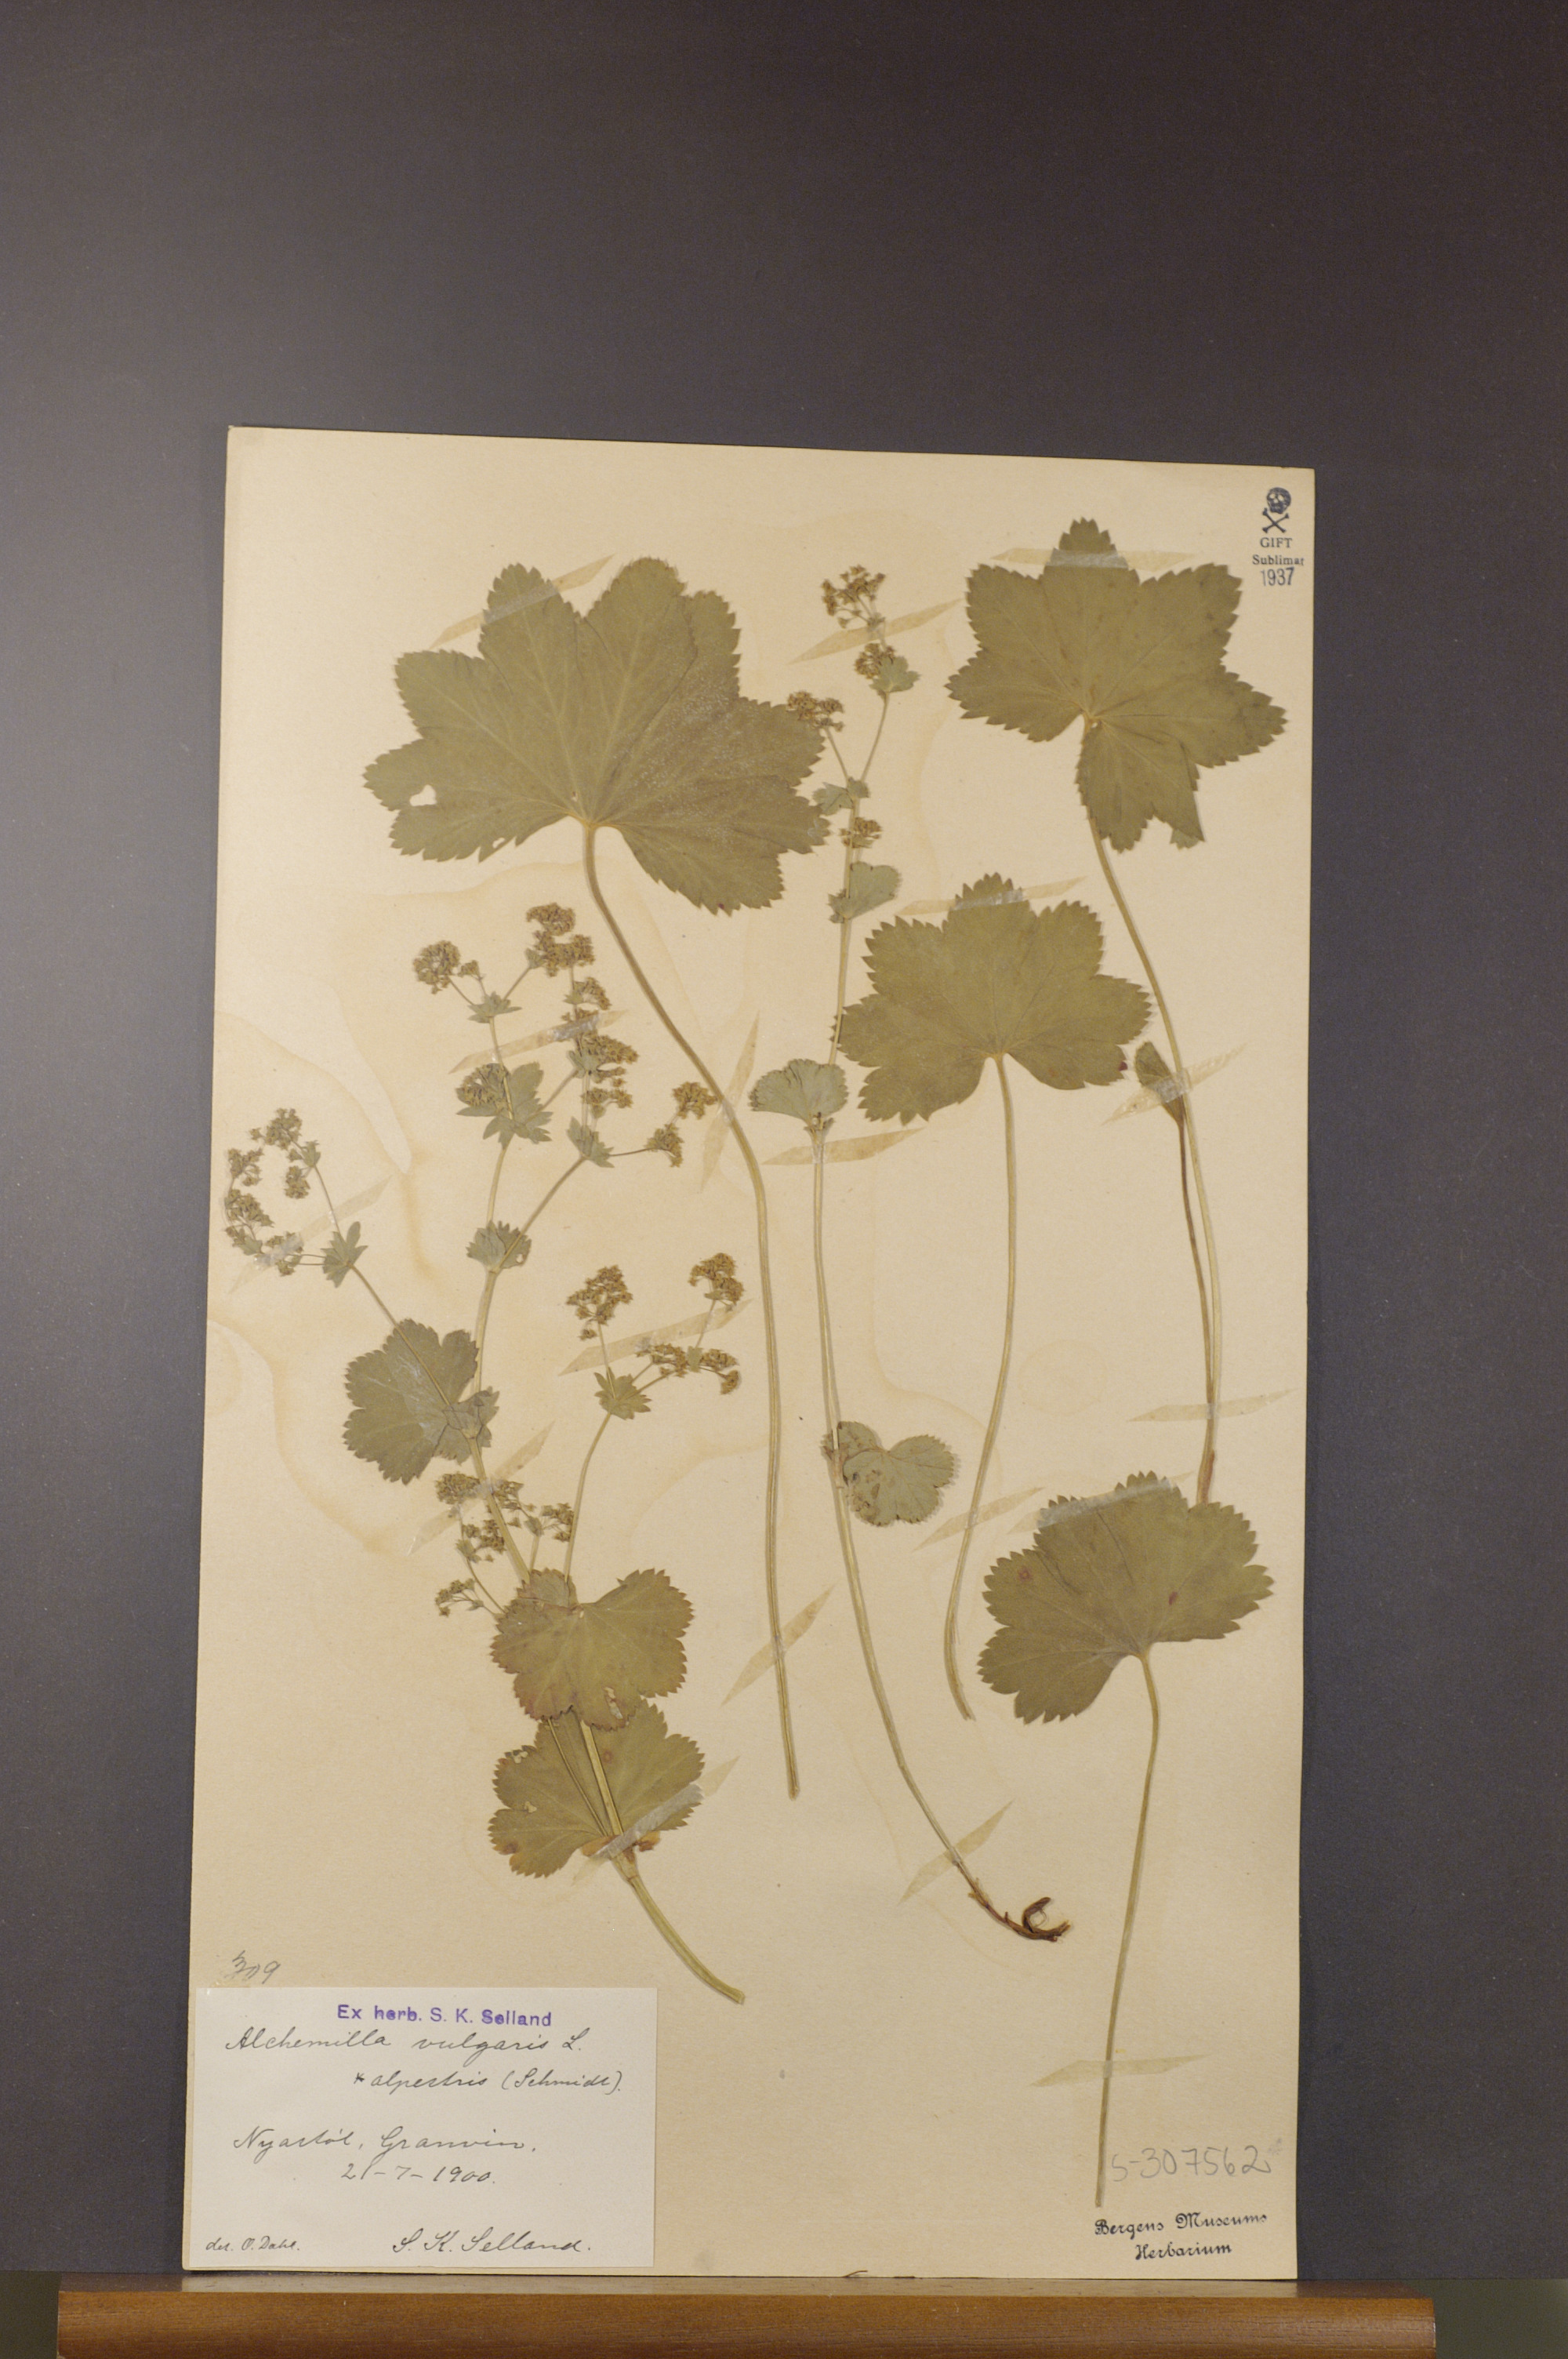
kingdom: Plantae
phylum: Tracheophyta
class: Magnoliopsida
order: Rosales
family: Rosaceae
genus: Alchemilla
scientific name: Alchemilla glabra
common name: Smooth lady's-mantle
